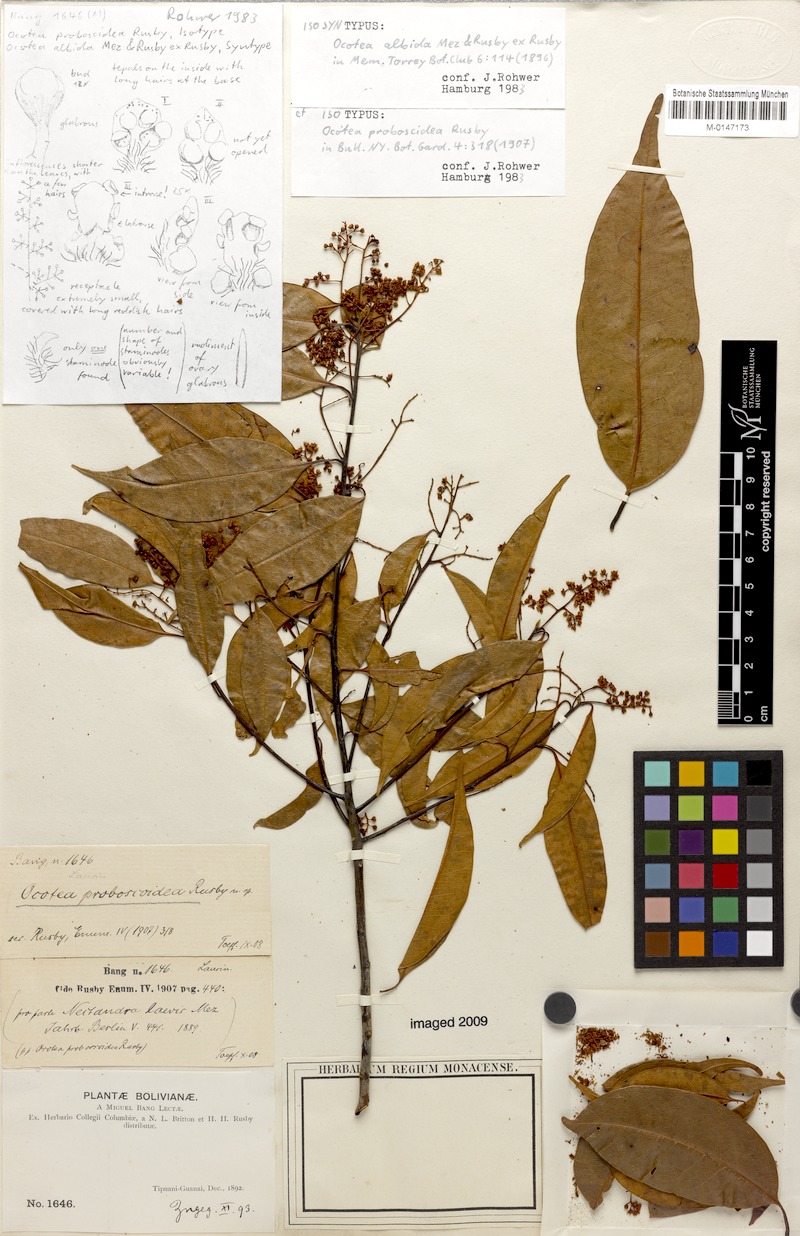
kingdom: Plantae
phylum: Tracheophyta
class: Magnoliopsida
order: Laurales
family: Lauraceae
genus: Mespilodaphne
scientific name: Mespilodaphne corymbosa
